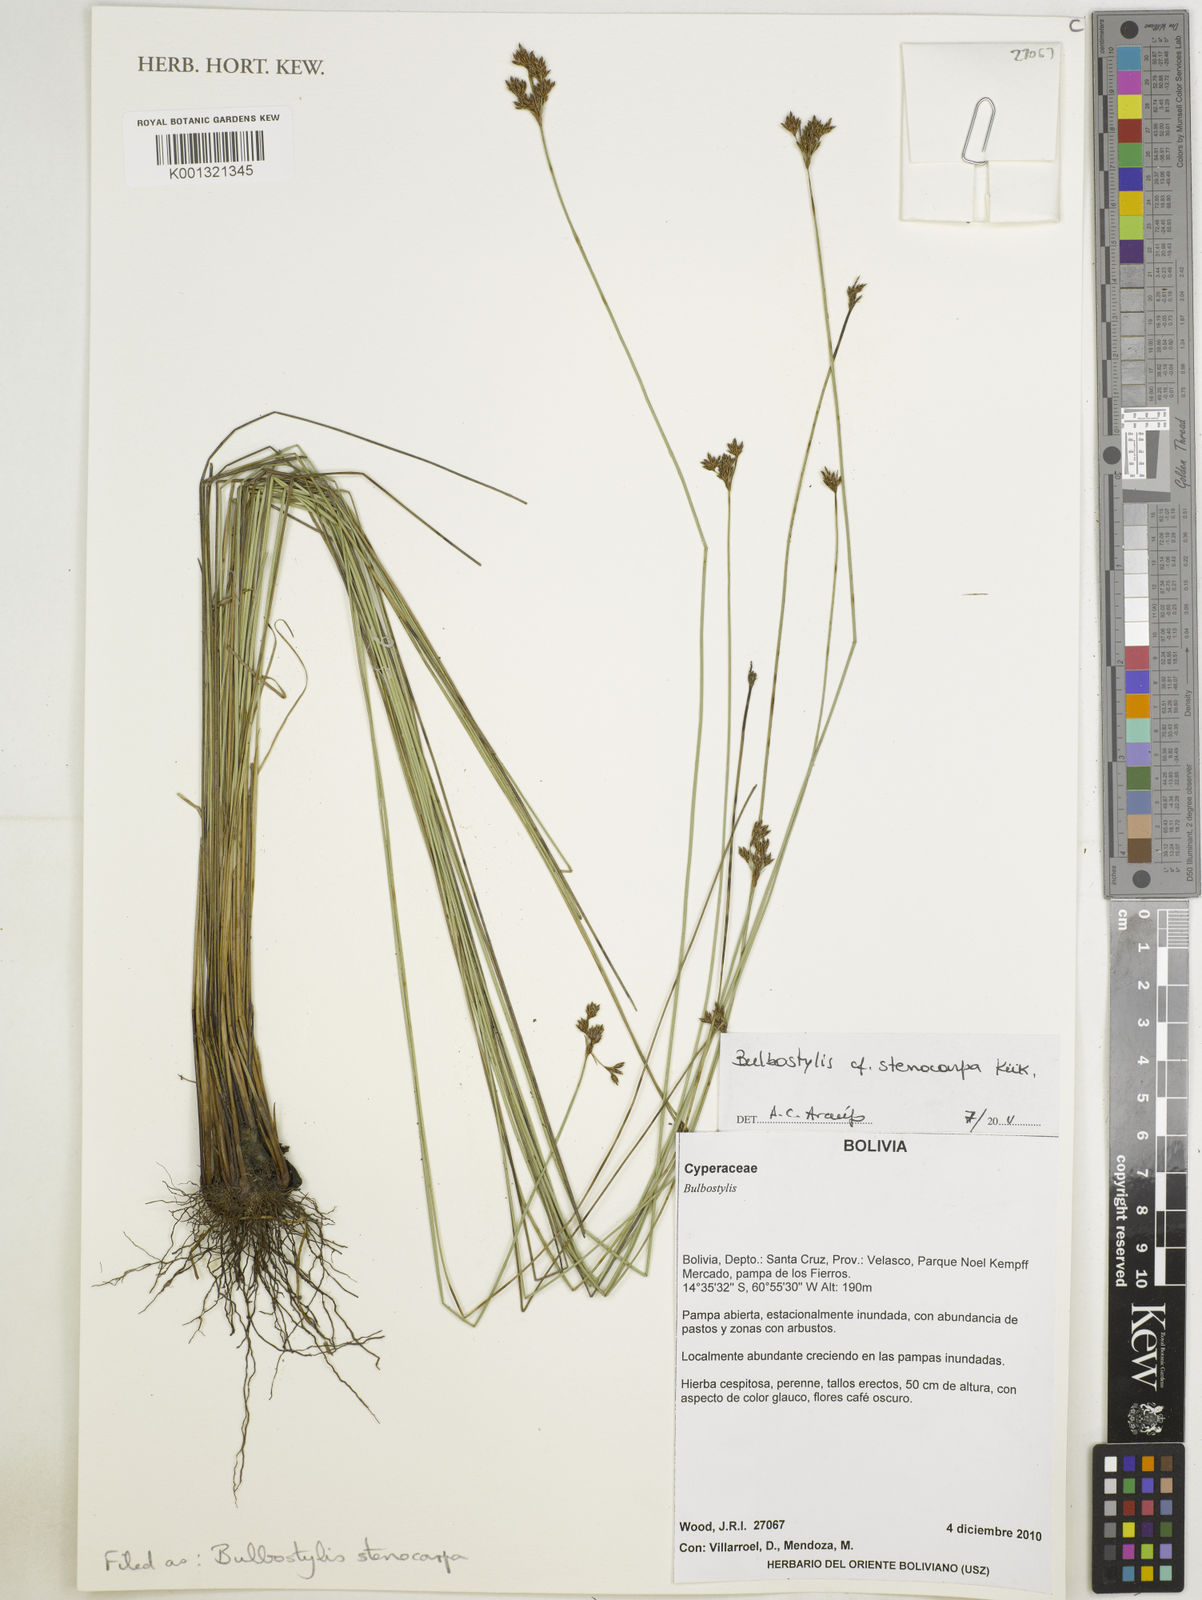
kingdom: Plantae
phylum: Tracheophyta
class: Liliopsida
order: Poales
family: Cyperaceae
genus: Bulbostylis
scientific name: Bulbostylis stenocarpa
